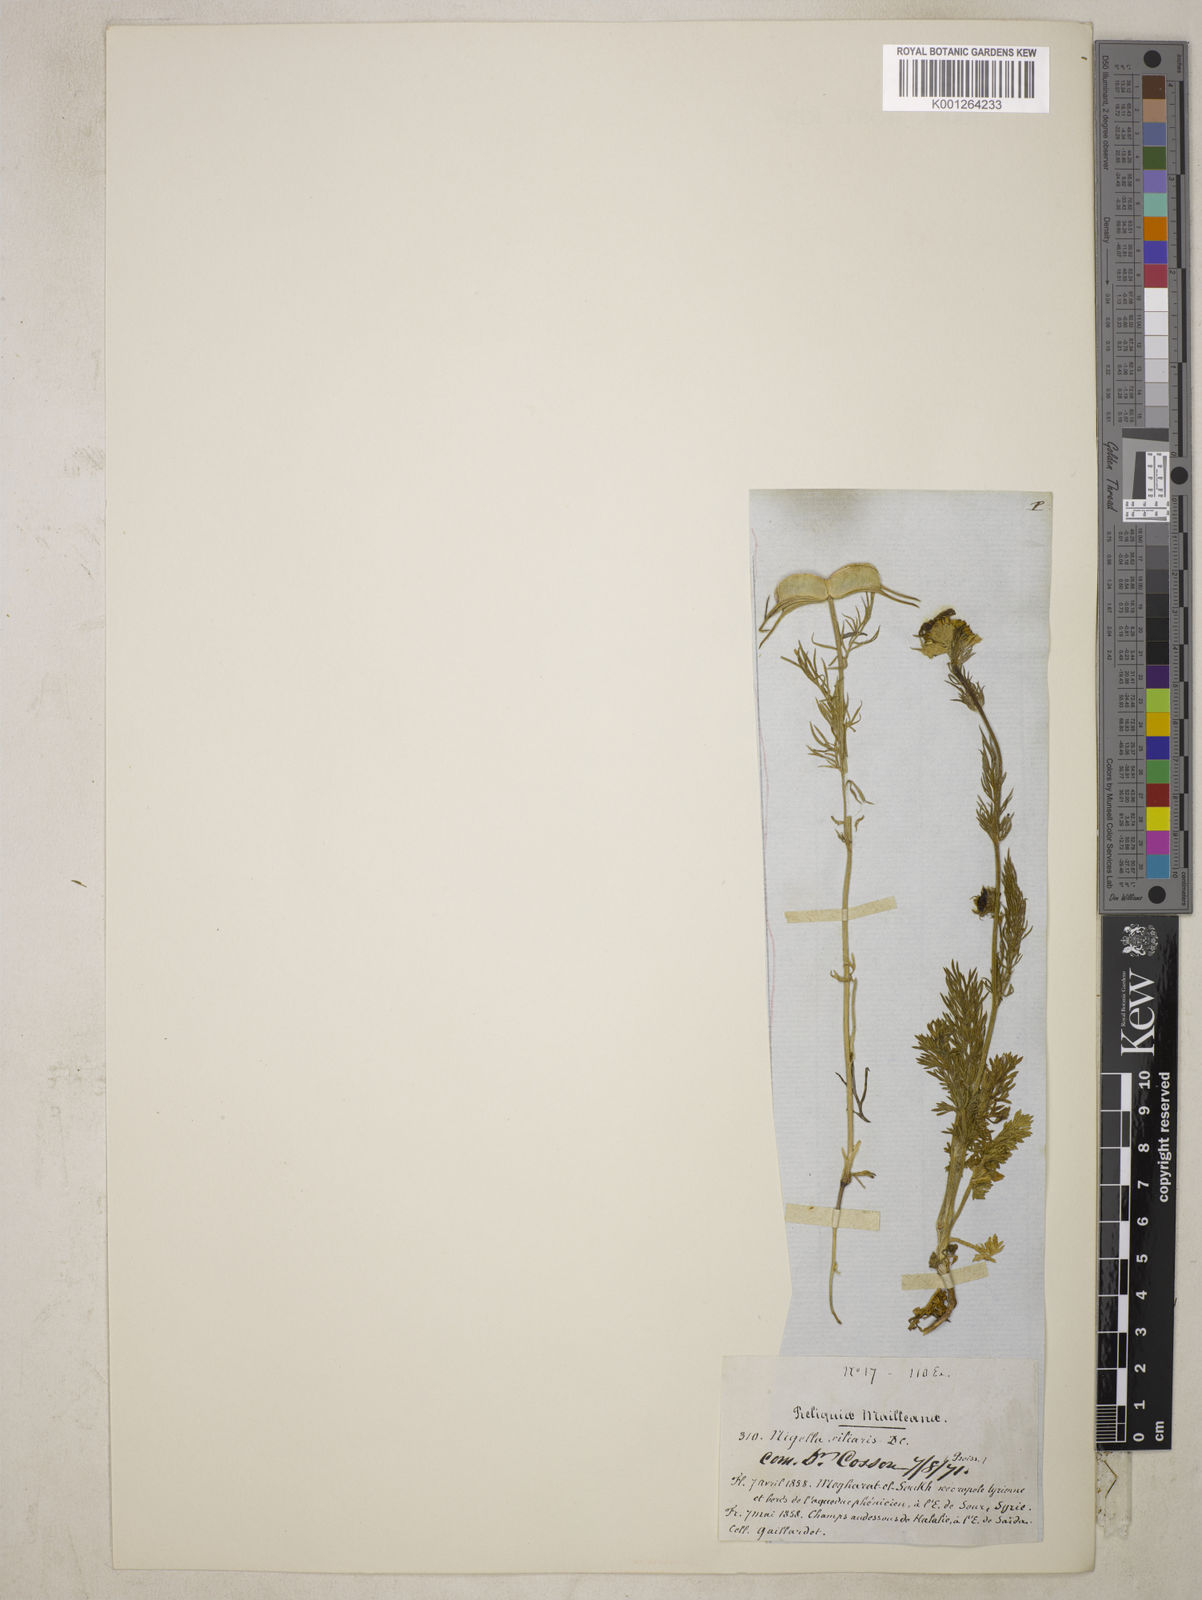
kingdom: Plantae
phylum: Tracheophyta
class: Magnoliopsida
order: Ranunculales
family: Ranunculaceae
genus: Nigella
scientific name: Nigella ciliaris
